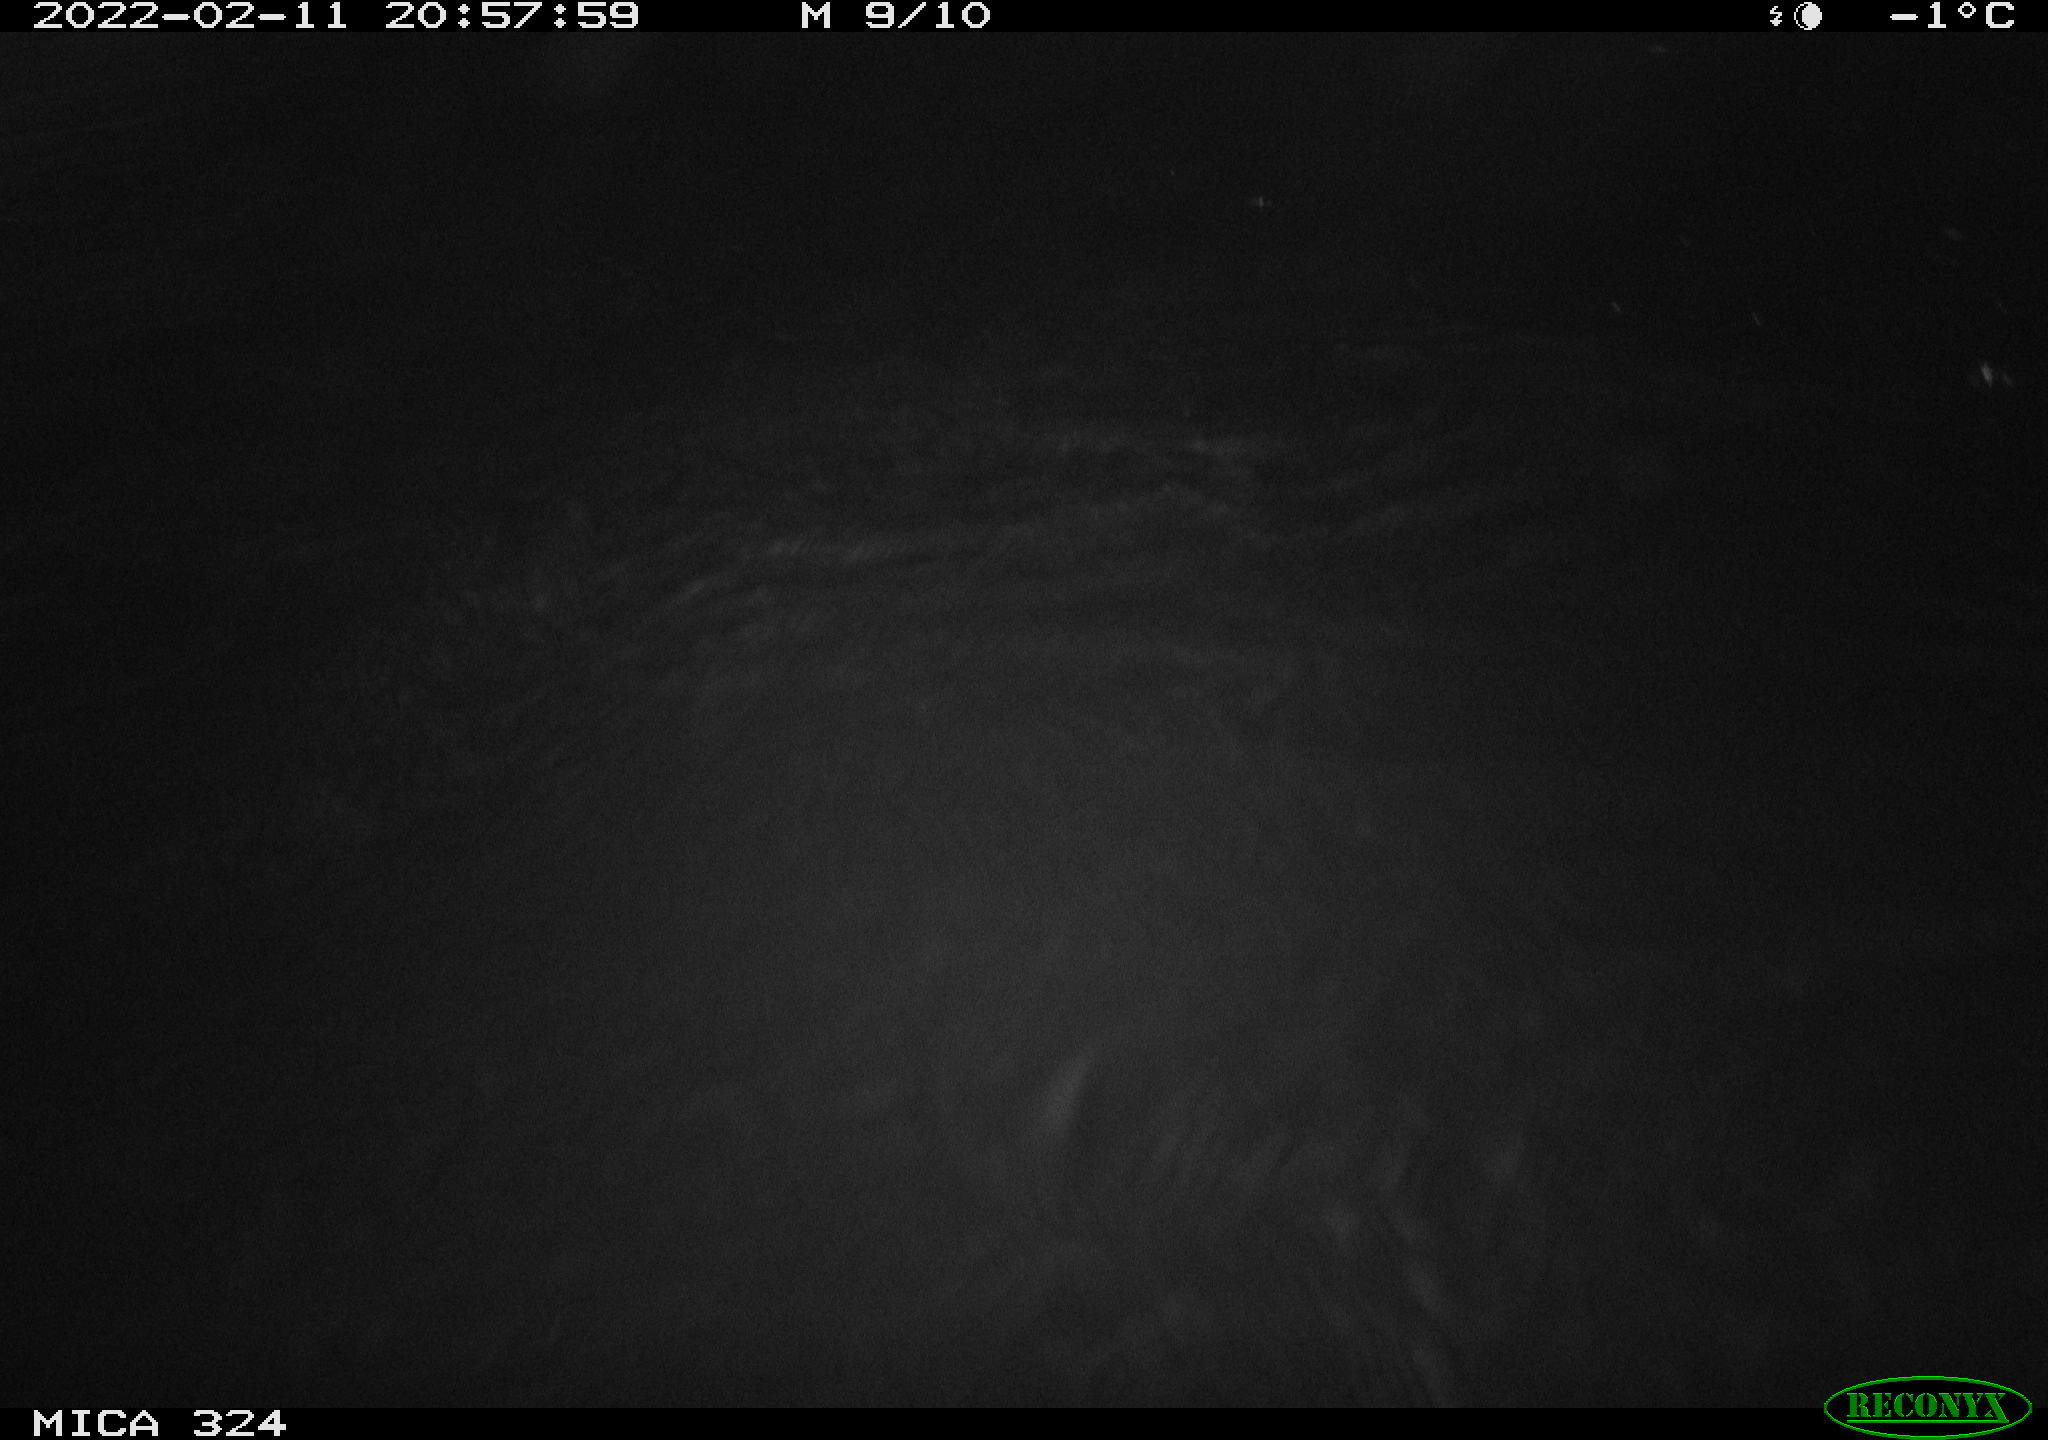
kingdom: Animalia
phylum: Chordata
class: Mammalia
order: Rodentia
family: Cricetidae
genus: Ondatra
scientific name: Ondatra zibethicus
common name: Muskrat
